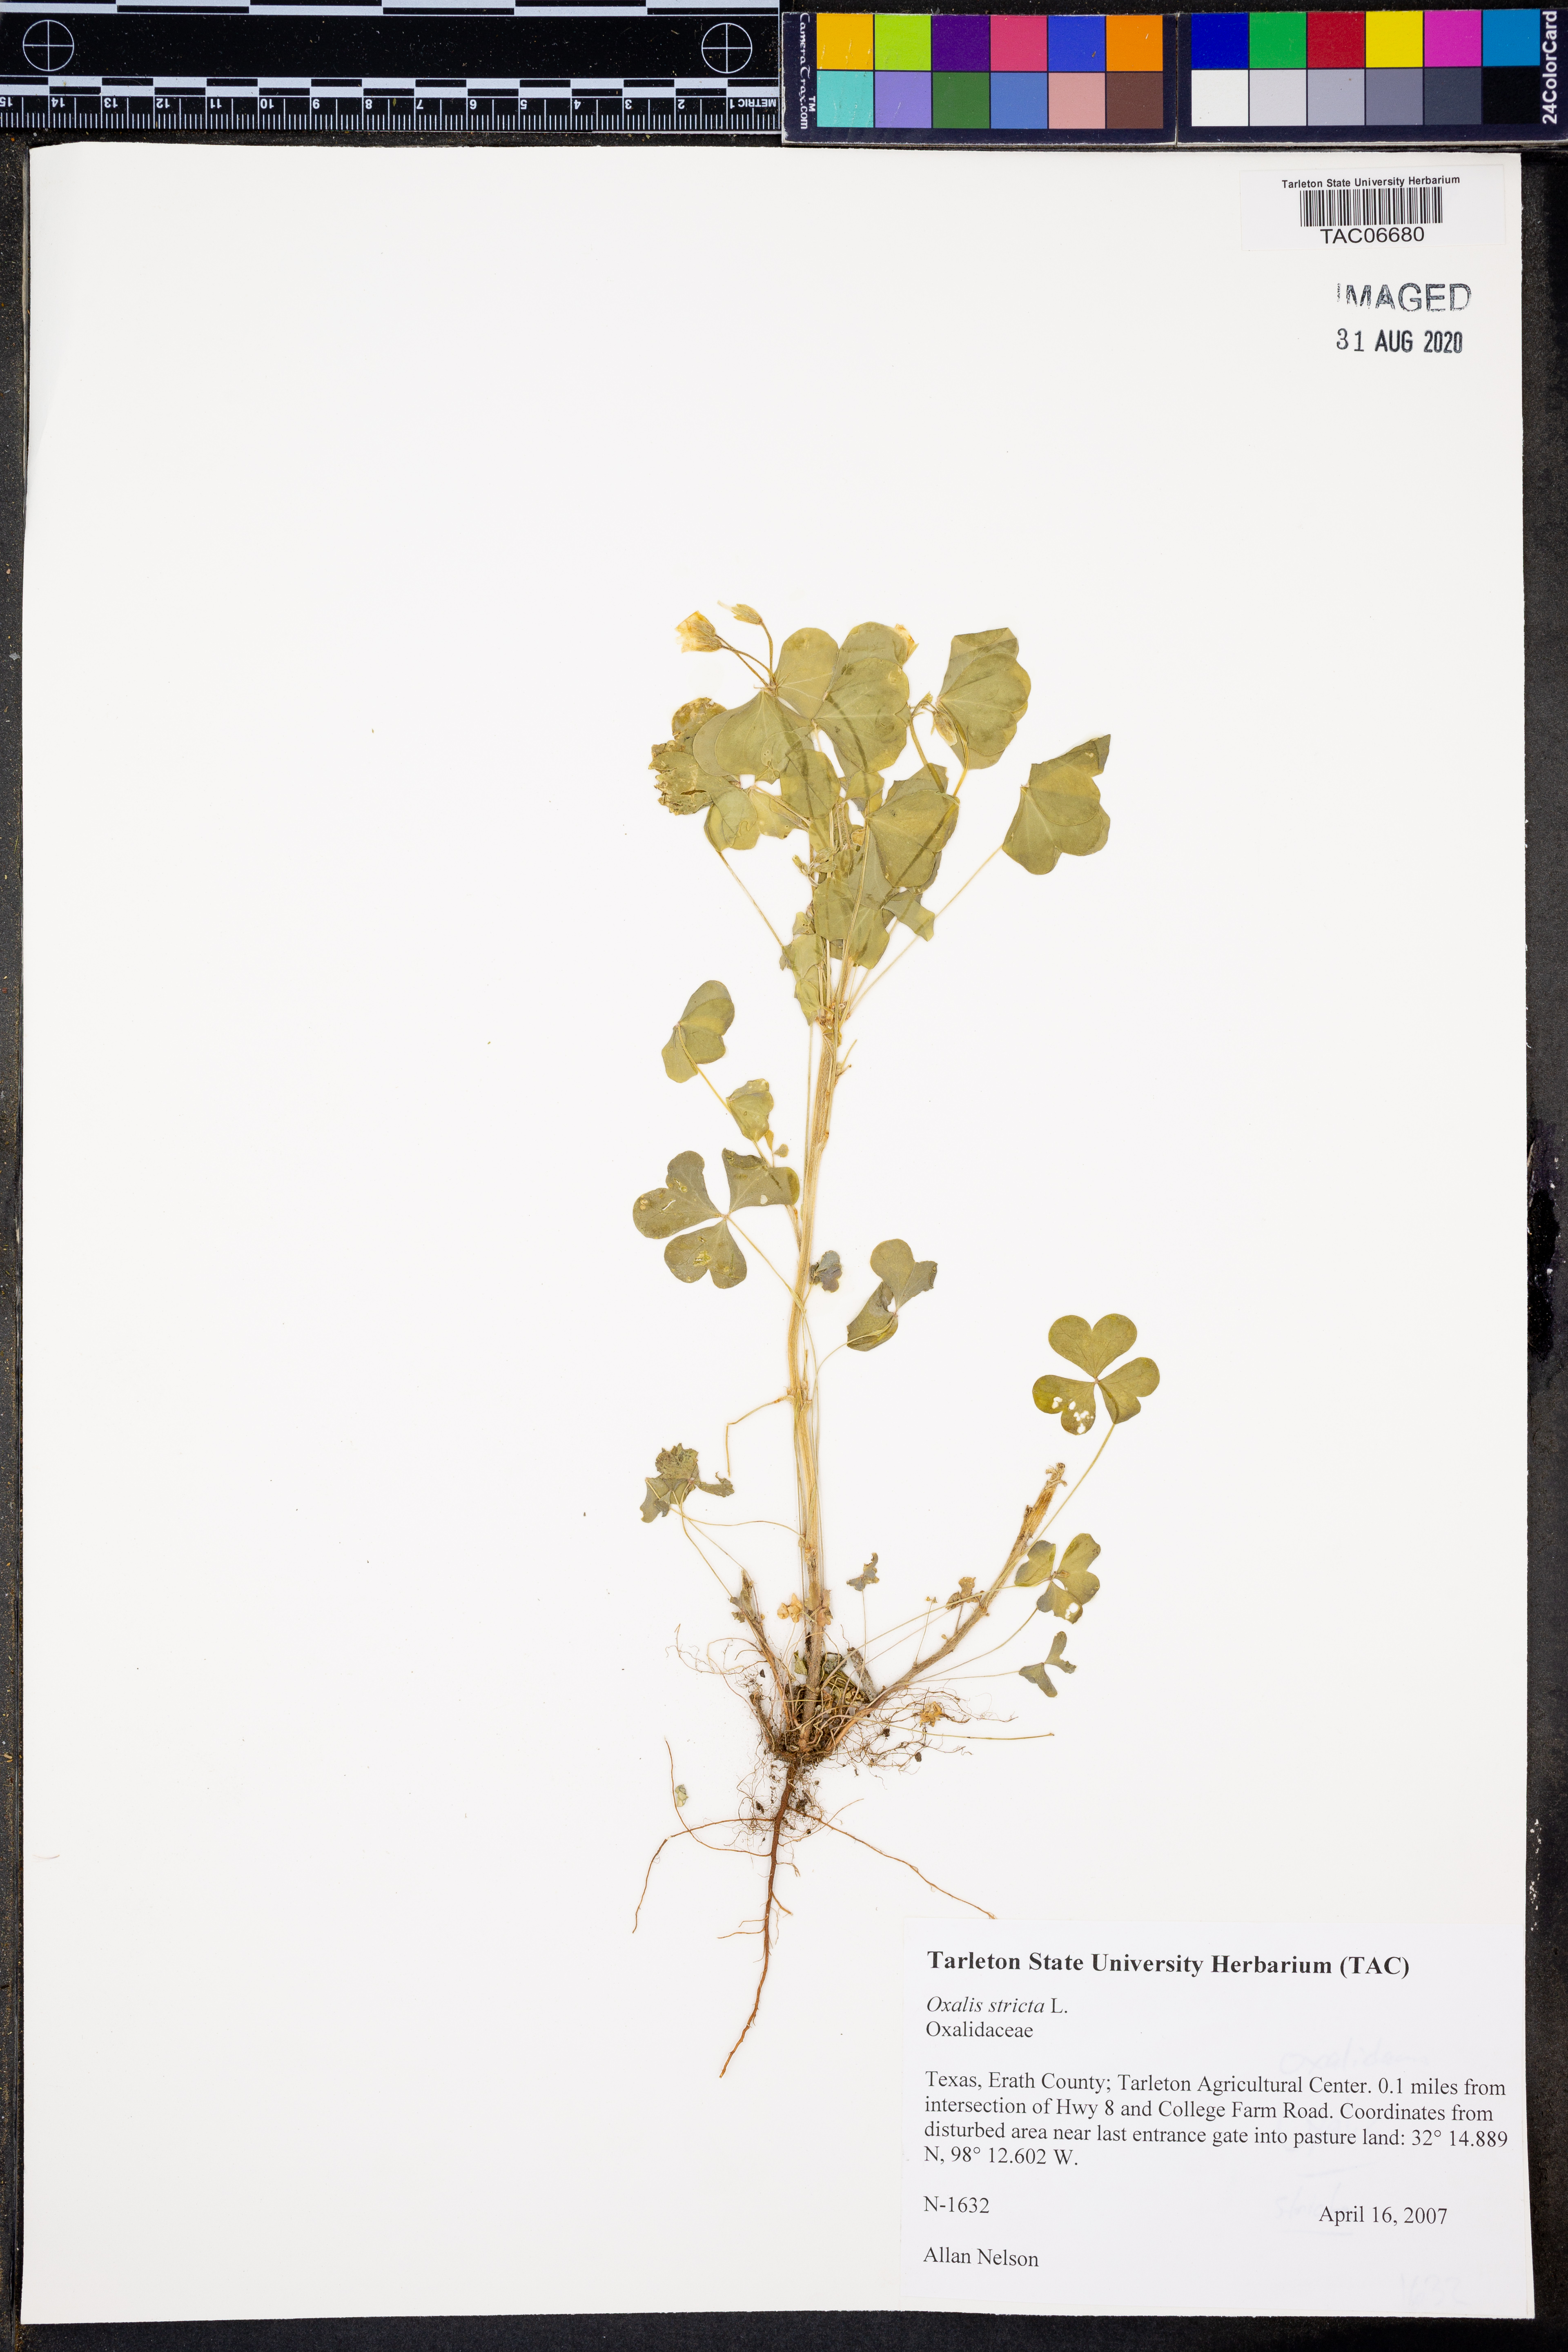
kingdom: Plantae
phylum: Tracheophyta
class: Magnoliopsida
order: Oxalidales
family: Oxalidaceae
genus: Oxalis
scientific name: Oxalis stricta
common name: Upright yellow-sorrel
